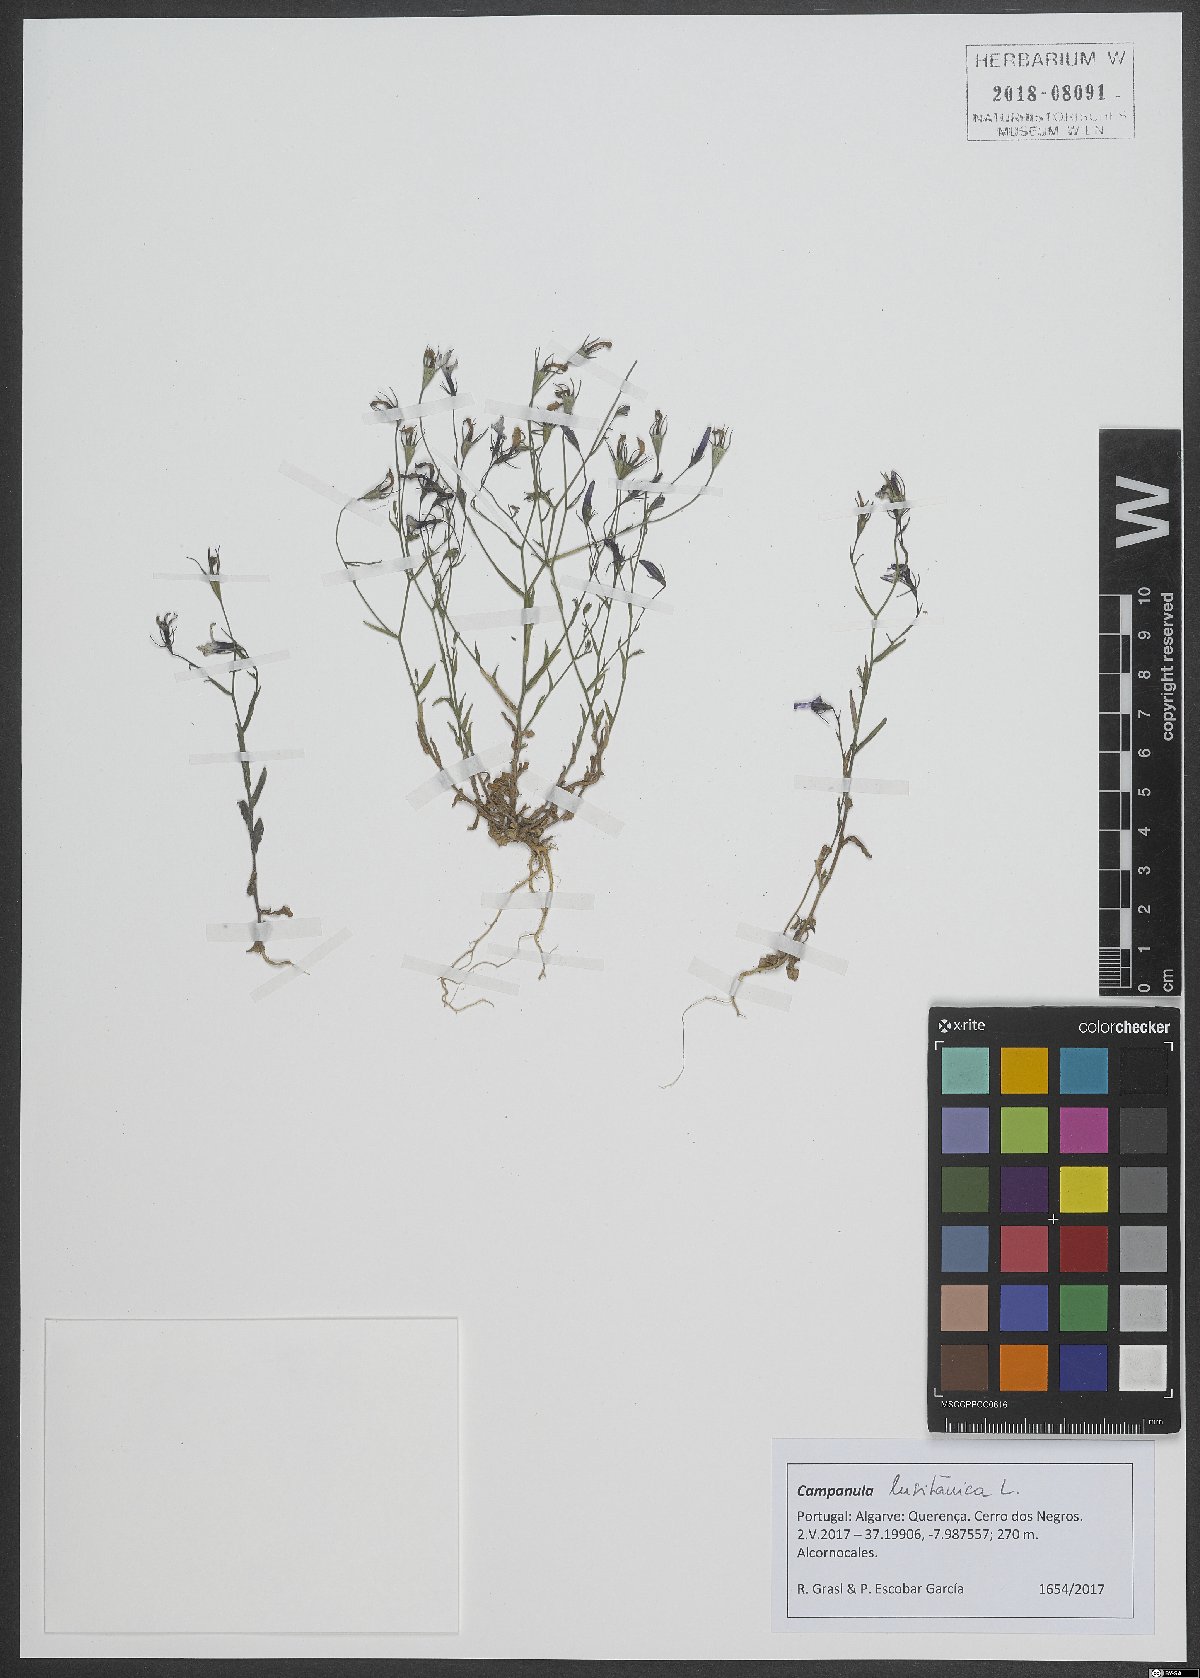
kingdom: Plantae
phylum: Tracheophyta
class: Magnoliopsida
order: Asterales
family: Campanulaceae
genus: Campanula
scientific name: Campanula lusitanica
